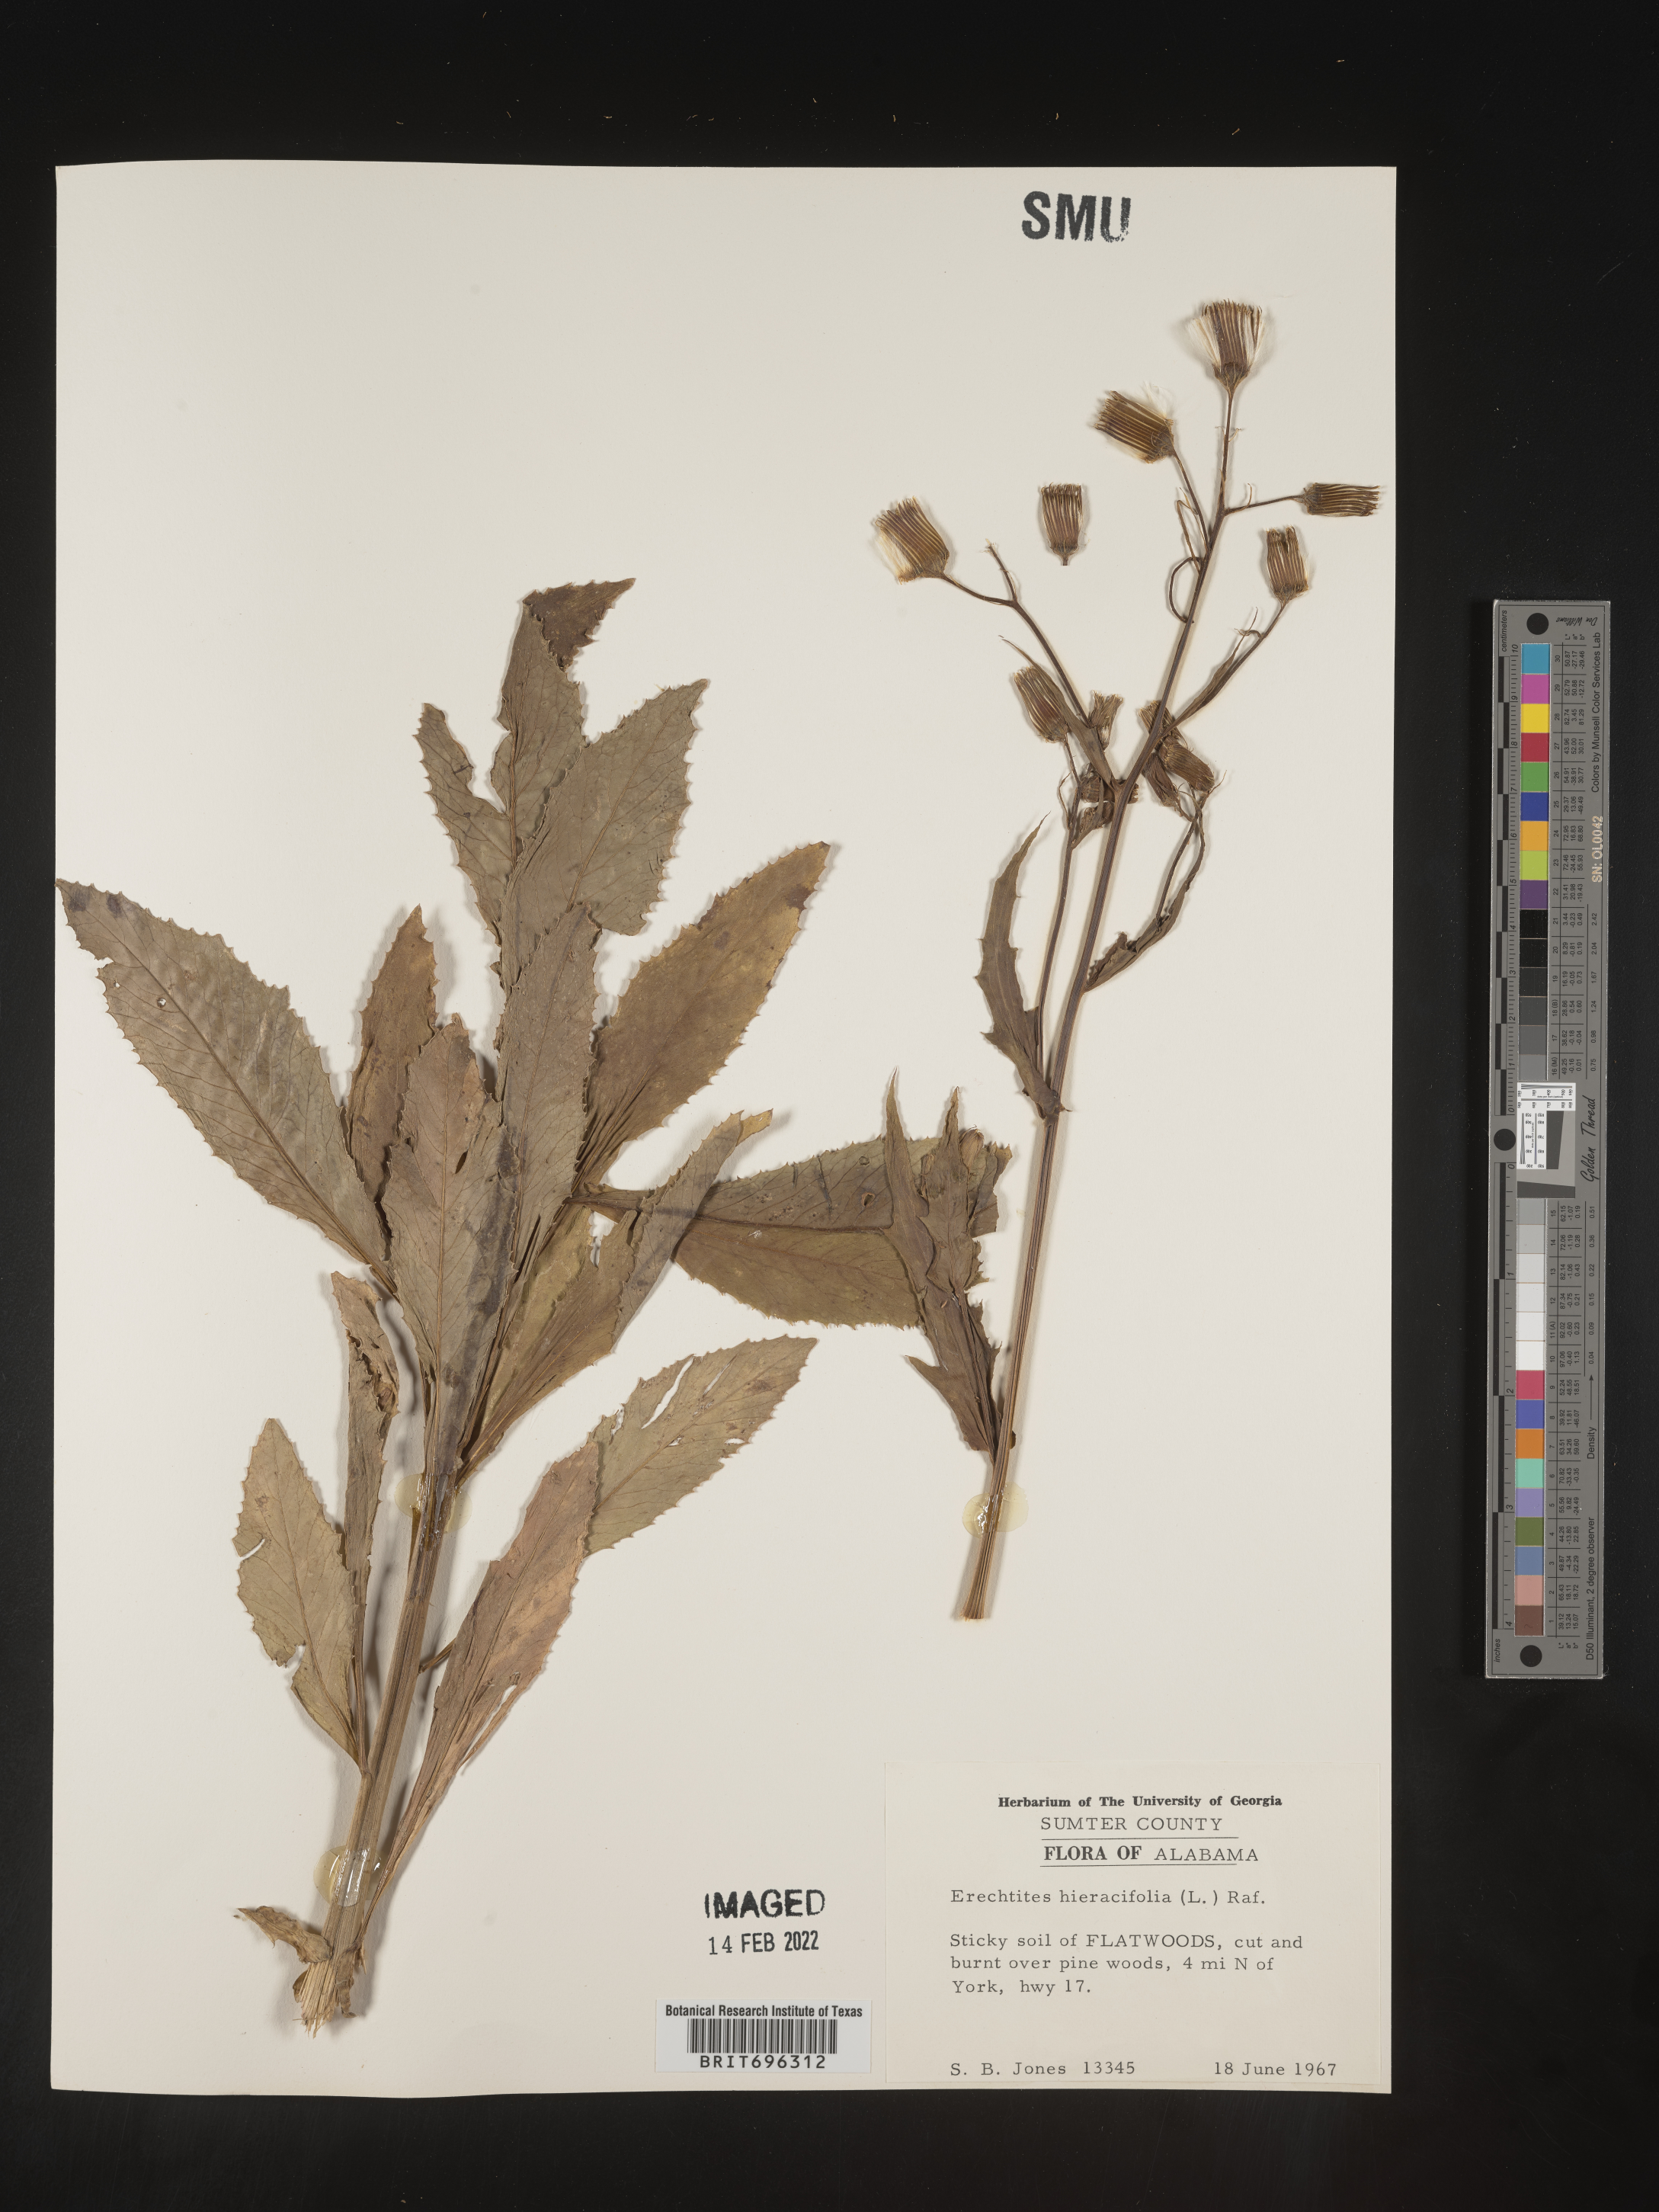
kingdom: Plantae
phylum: Tracheophyta
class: Magnoliopsida
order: Asterales
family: Asteraceae
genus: Erechtites
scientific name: Erechtites hieraciifolius
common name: American burnweed
